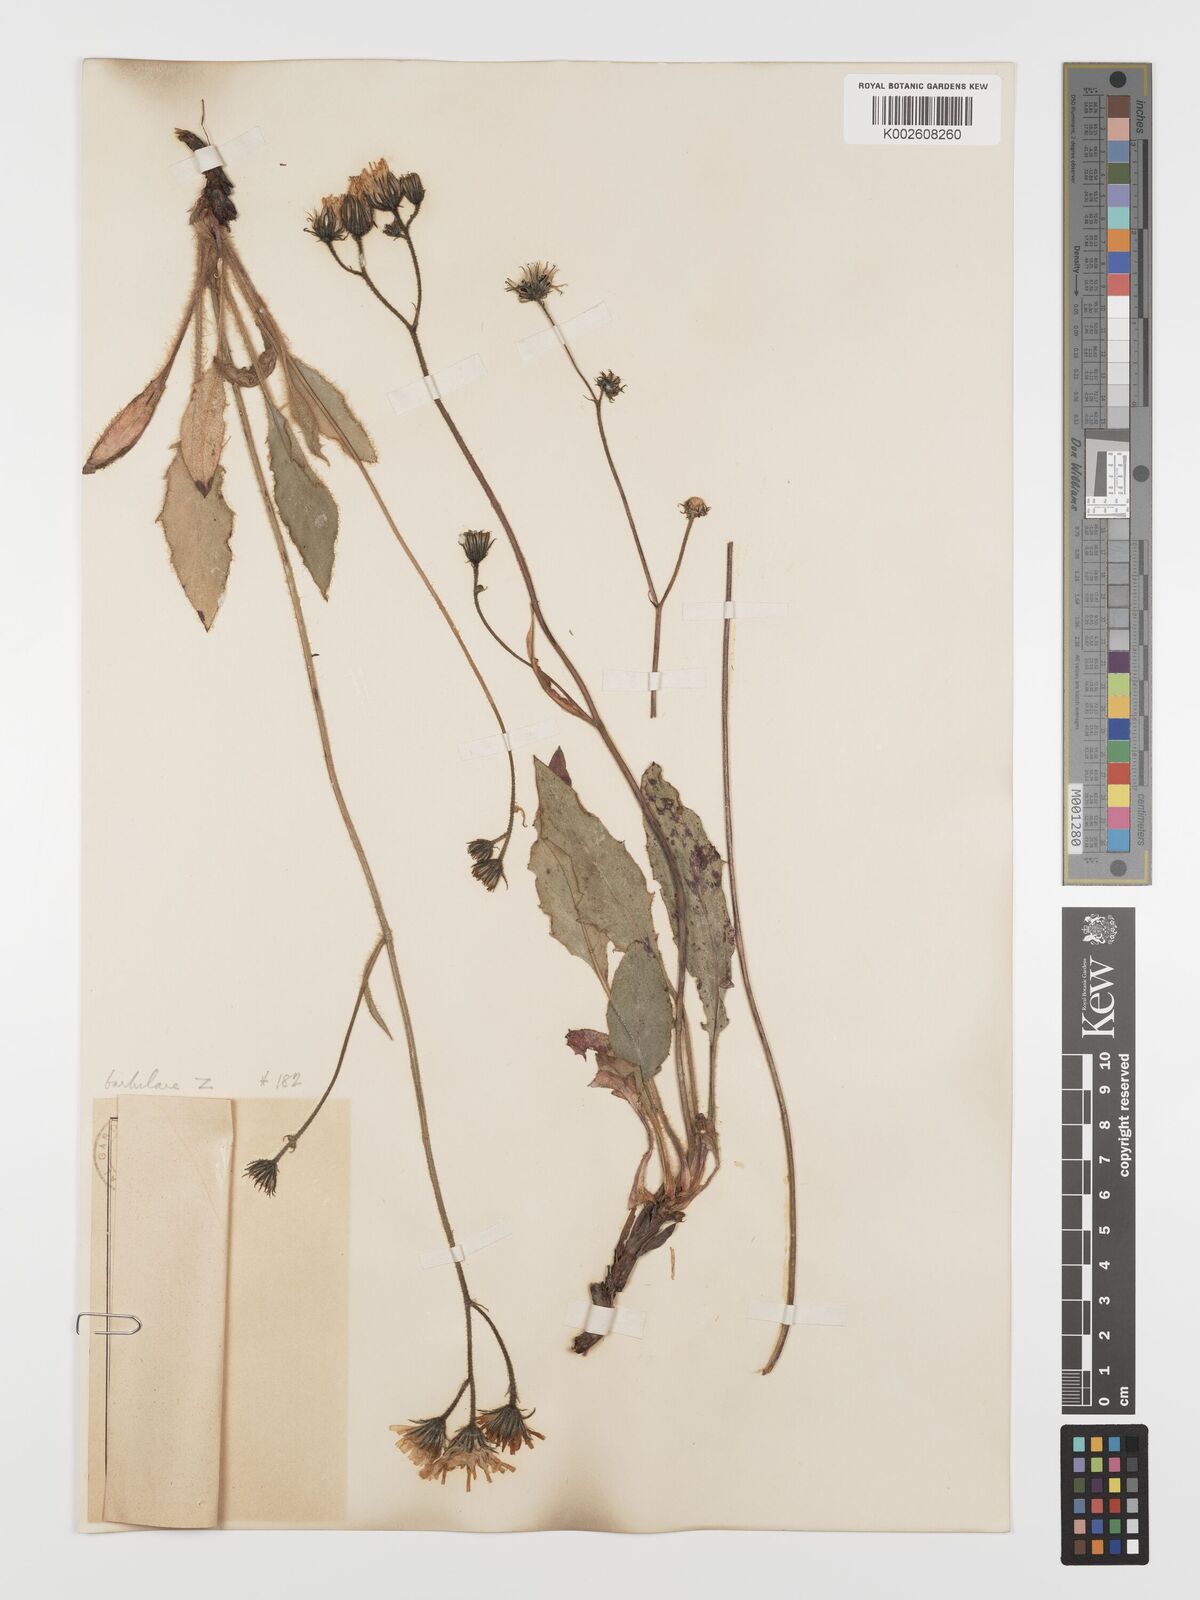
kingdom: Plantae
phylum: Tracheophyta
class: Magnoliopsida
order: Asterales
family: Asteraceae
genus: Hieracium
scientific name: Hieracium olivaceum
